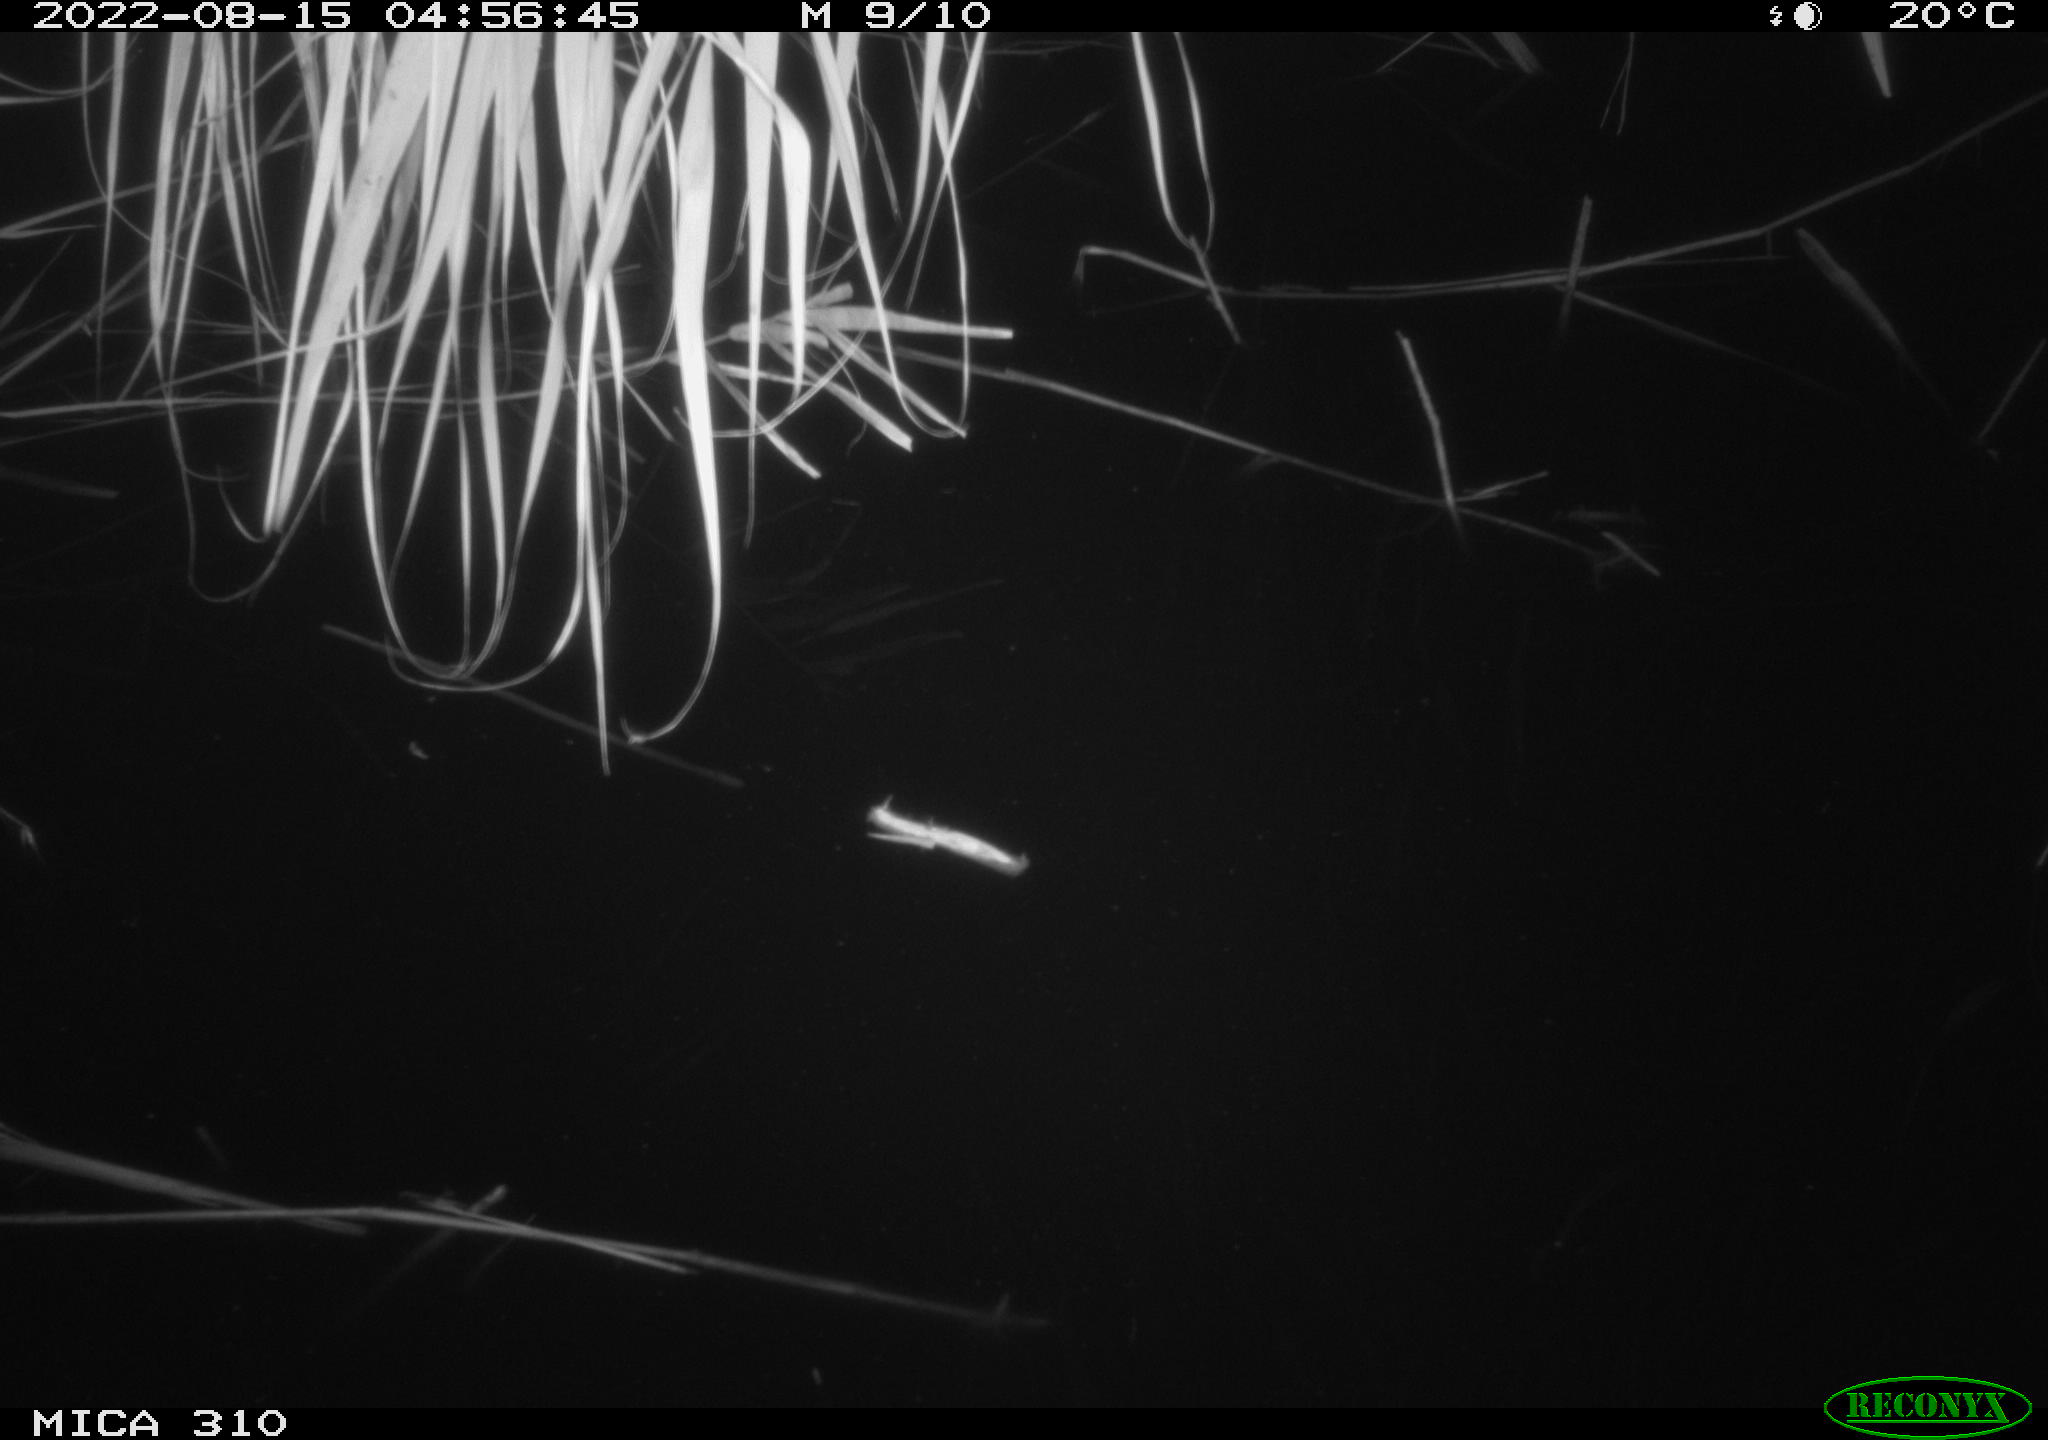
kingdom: Animalia
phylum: Chordata
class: Aves
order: Anseriformes
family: Anatidae
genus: Anas
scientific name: Anas platyrhynchos
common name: Mallard
